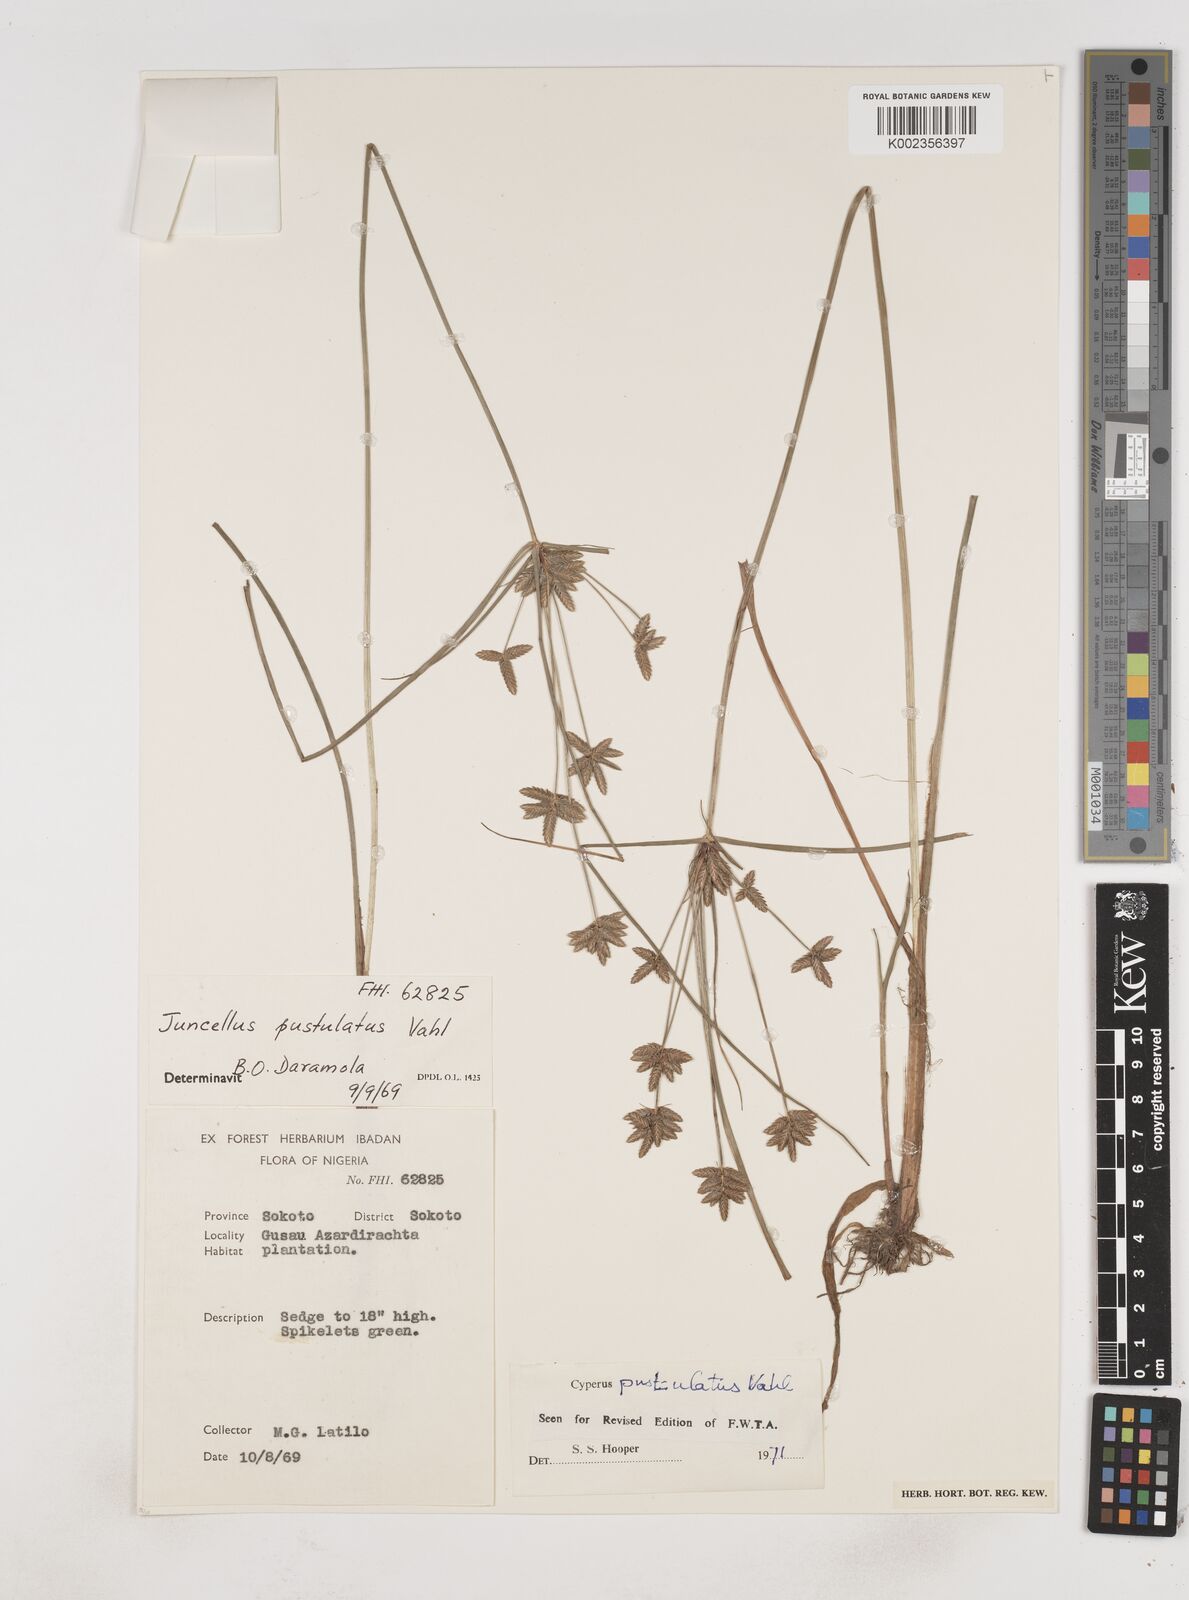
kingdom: Plantae
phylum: Tracheophyta
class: Liliopsida
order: Poales
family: Cyperaceae
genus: Cyperus
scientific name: Cyperus pustulatus
